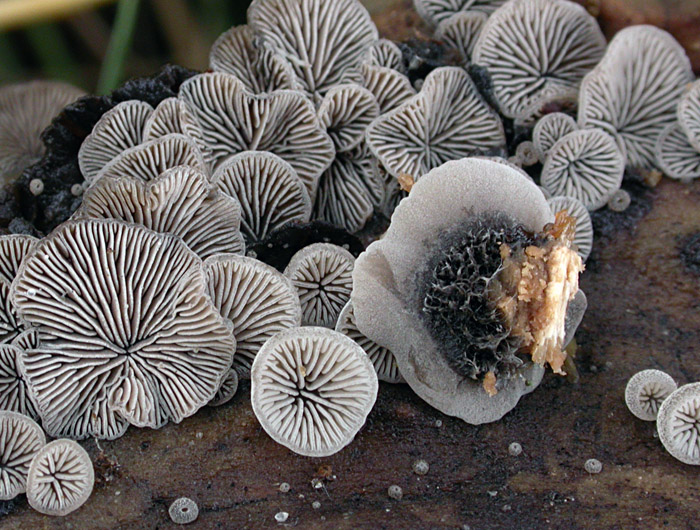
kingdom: Fungi
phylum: Basidiomycota
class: Agaricomycetes
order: Agaricales
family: Pleurotaceae
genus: Resupinatus
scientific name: Resupinatus trichotis
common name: mørkfiltet barkhat
